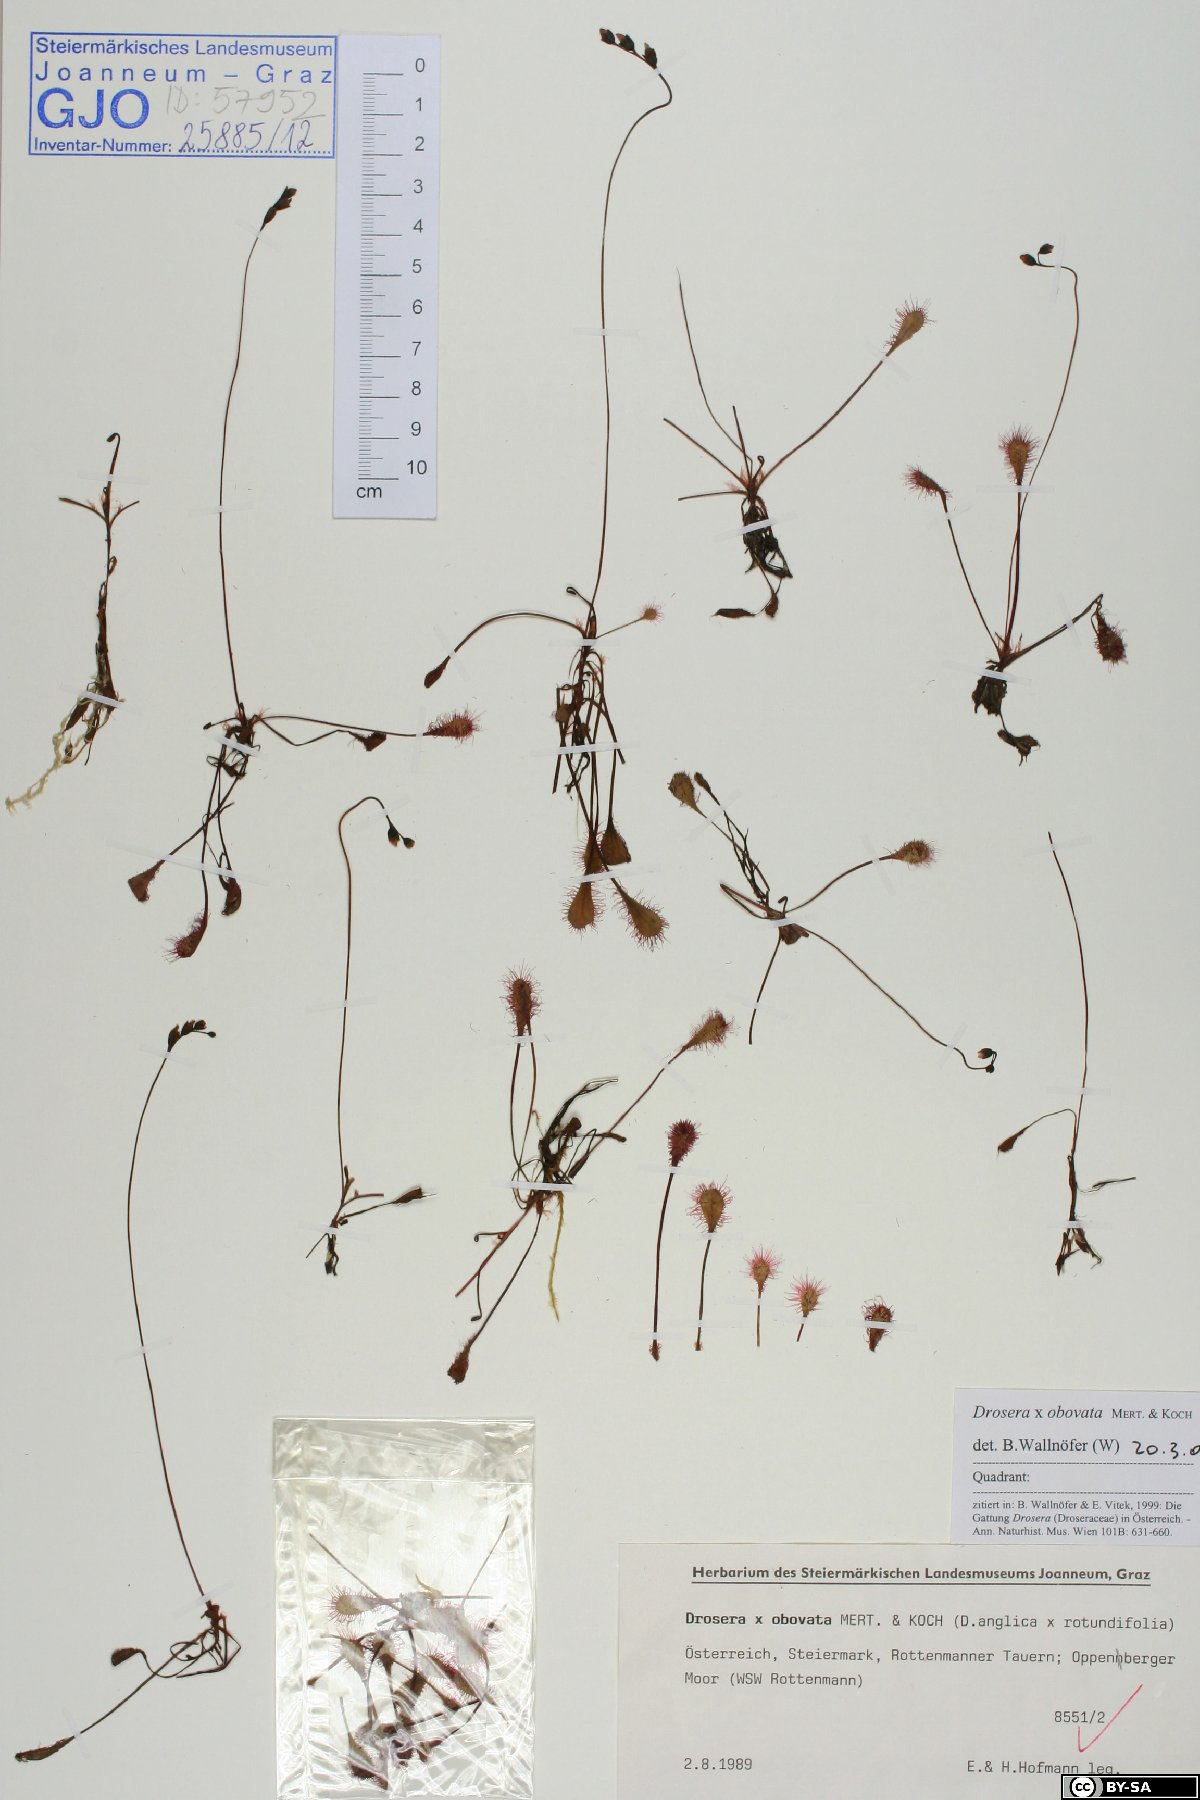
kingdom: Plantae
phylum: Tracheophyta
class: Magnoliopsida
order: Caryophyllales
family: Droseraceae
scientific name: Droseraceae
